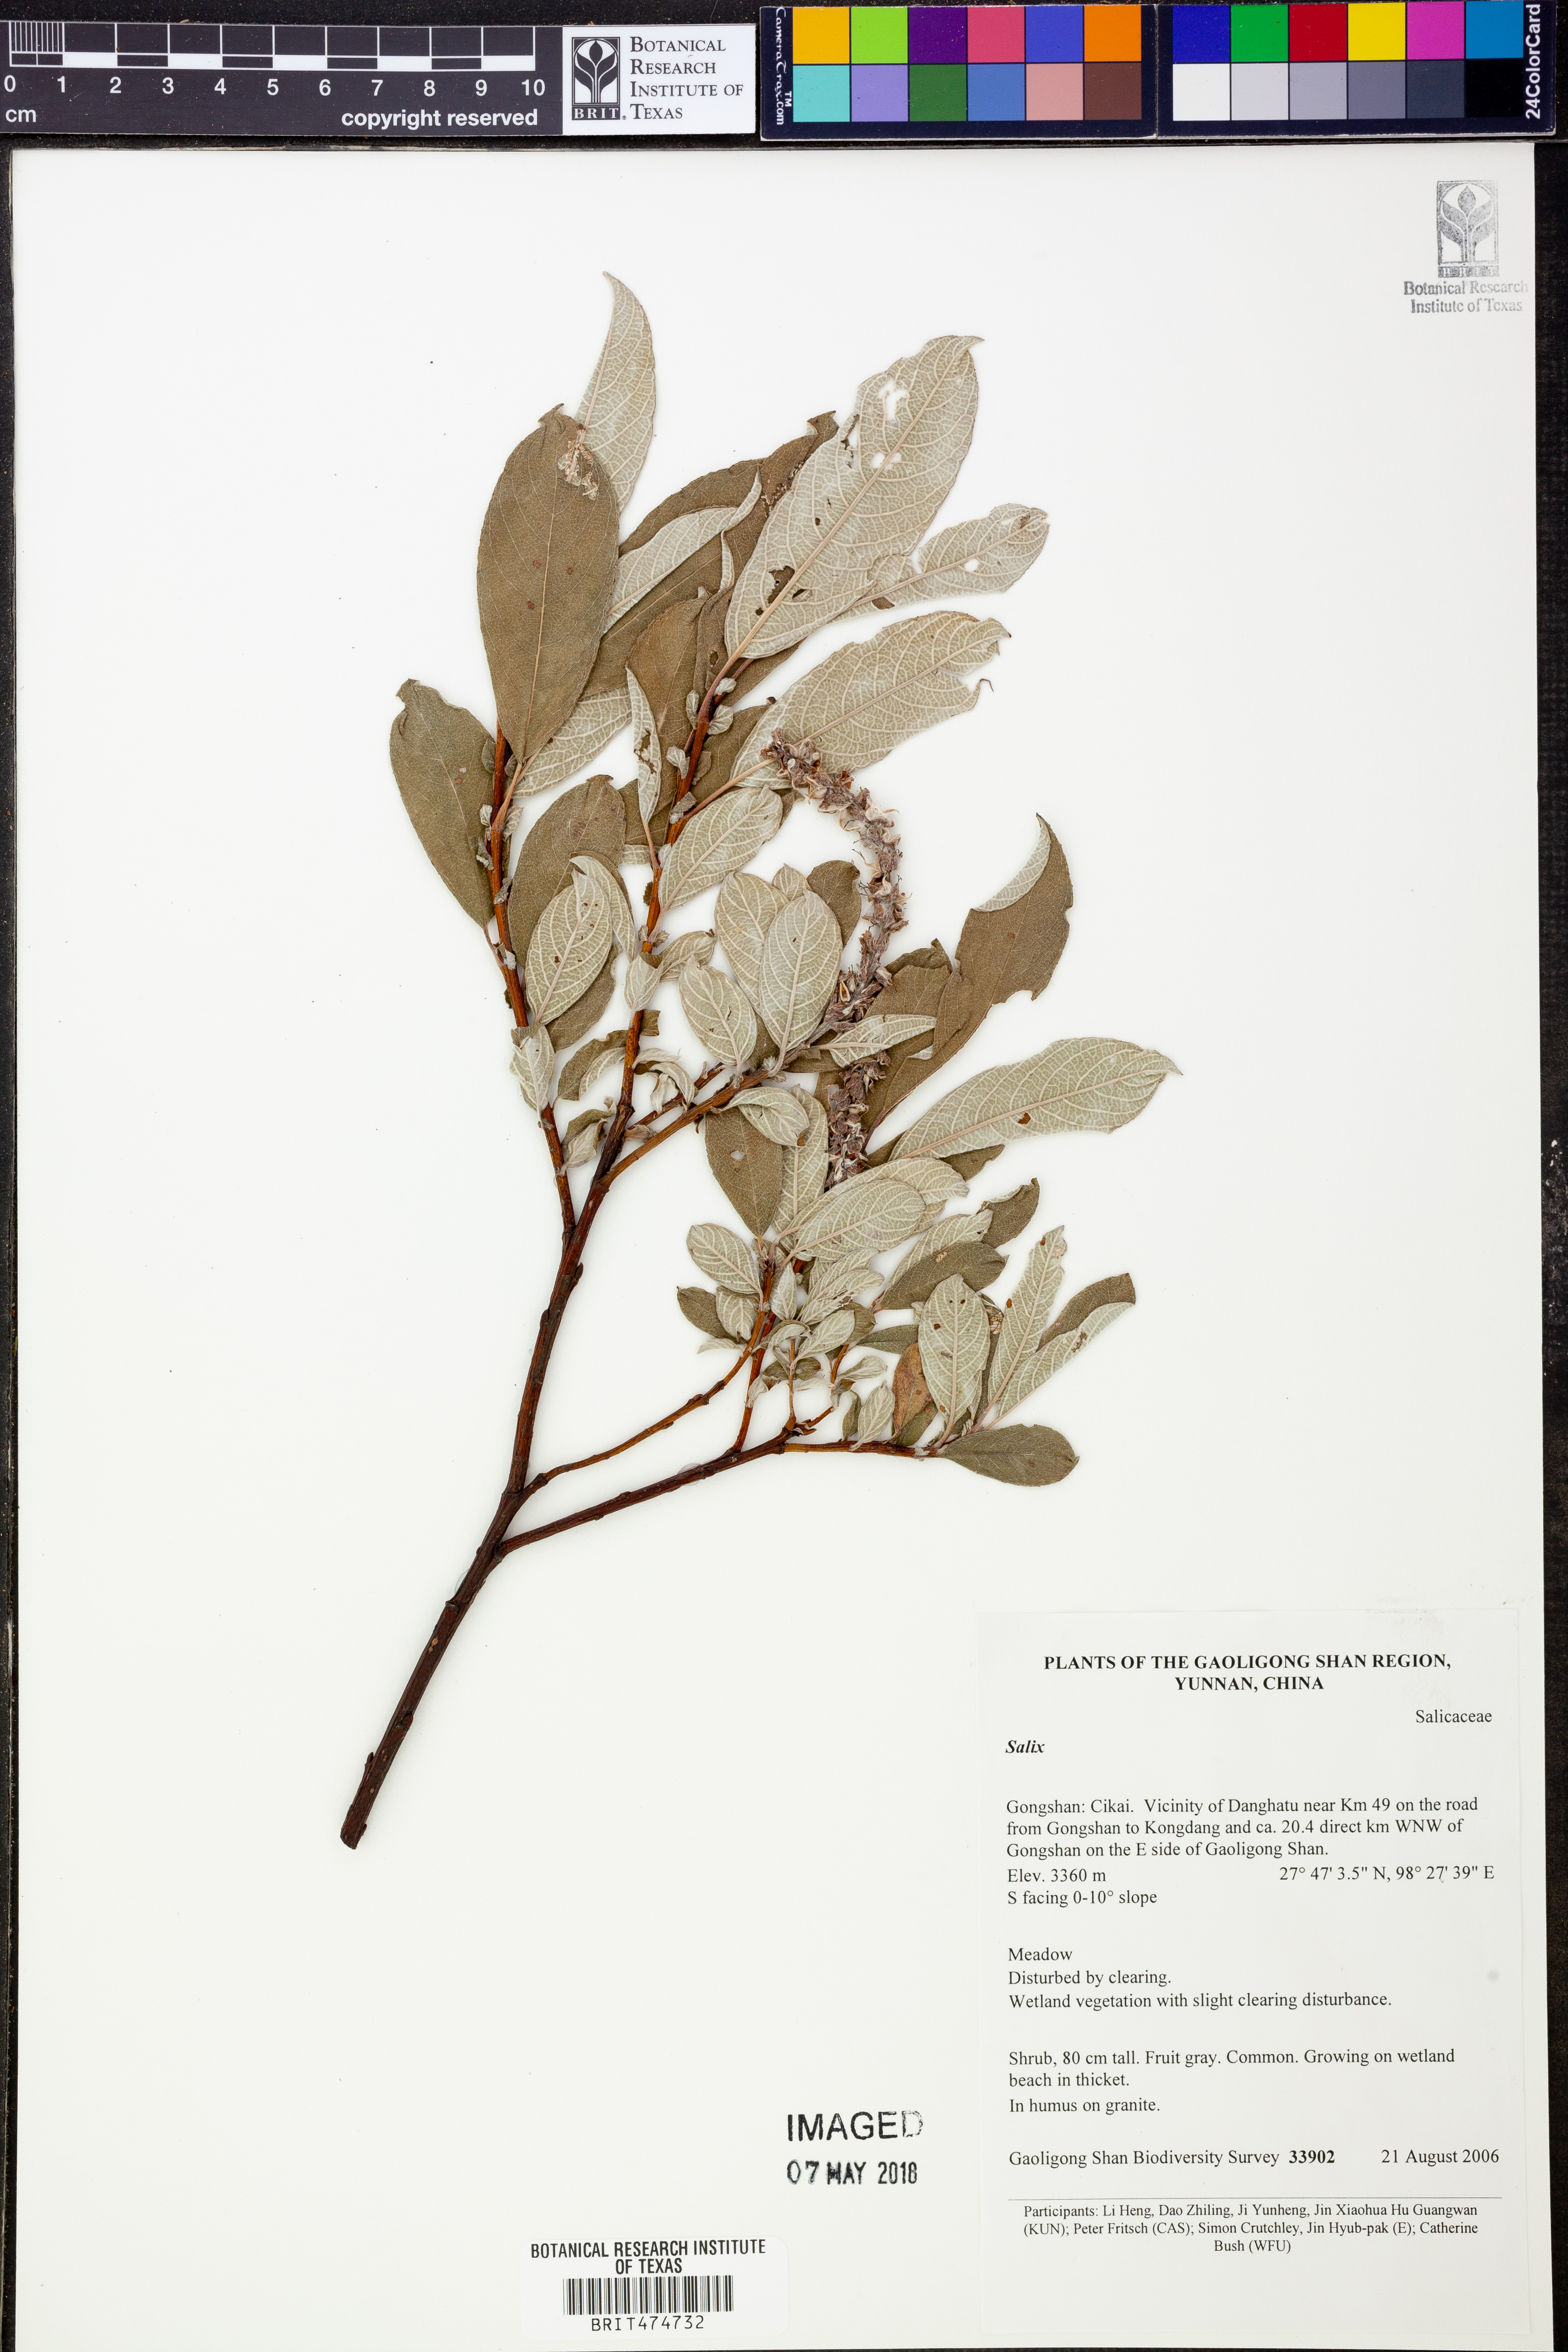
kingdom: Plantae
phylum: Tracheophyta
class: Magnoliopsida
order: Malpighiales
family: Salicaceae
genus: Salix
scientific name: Salix
